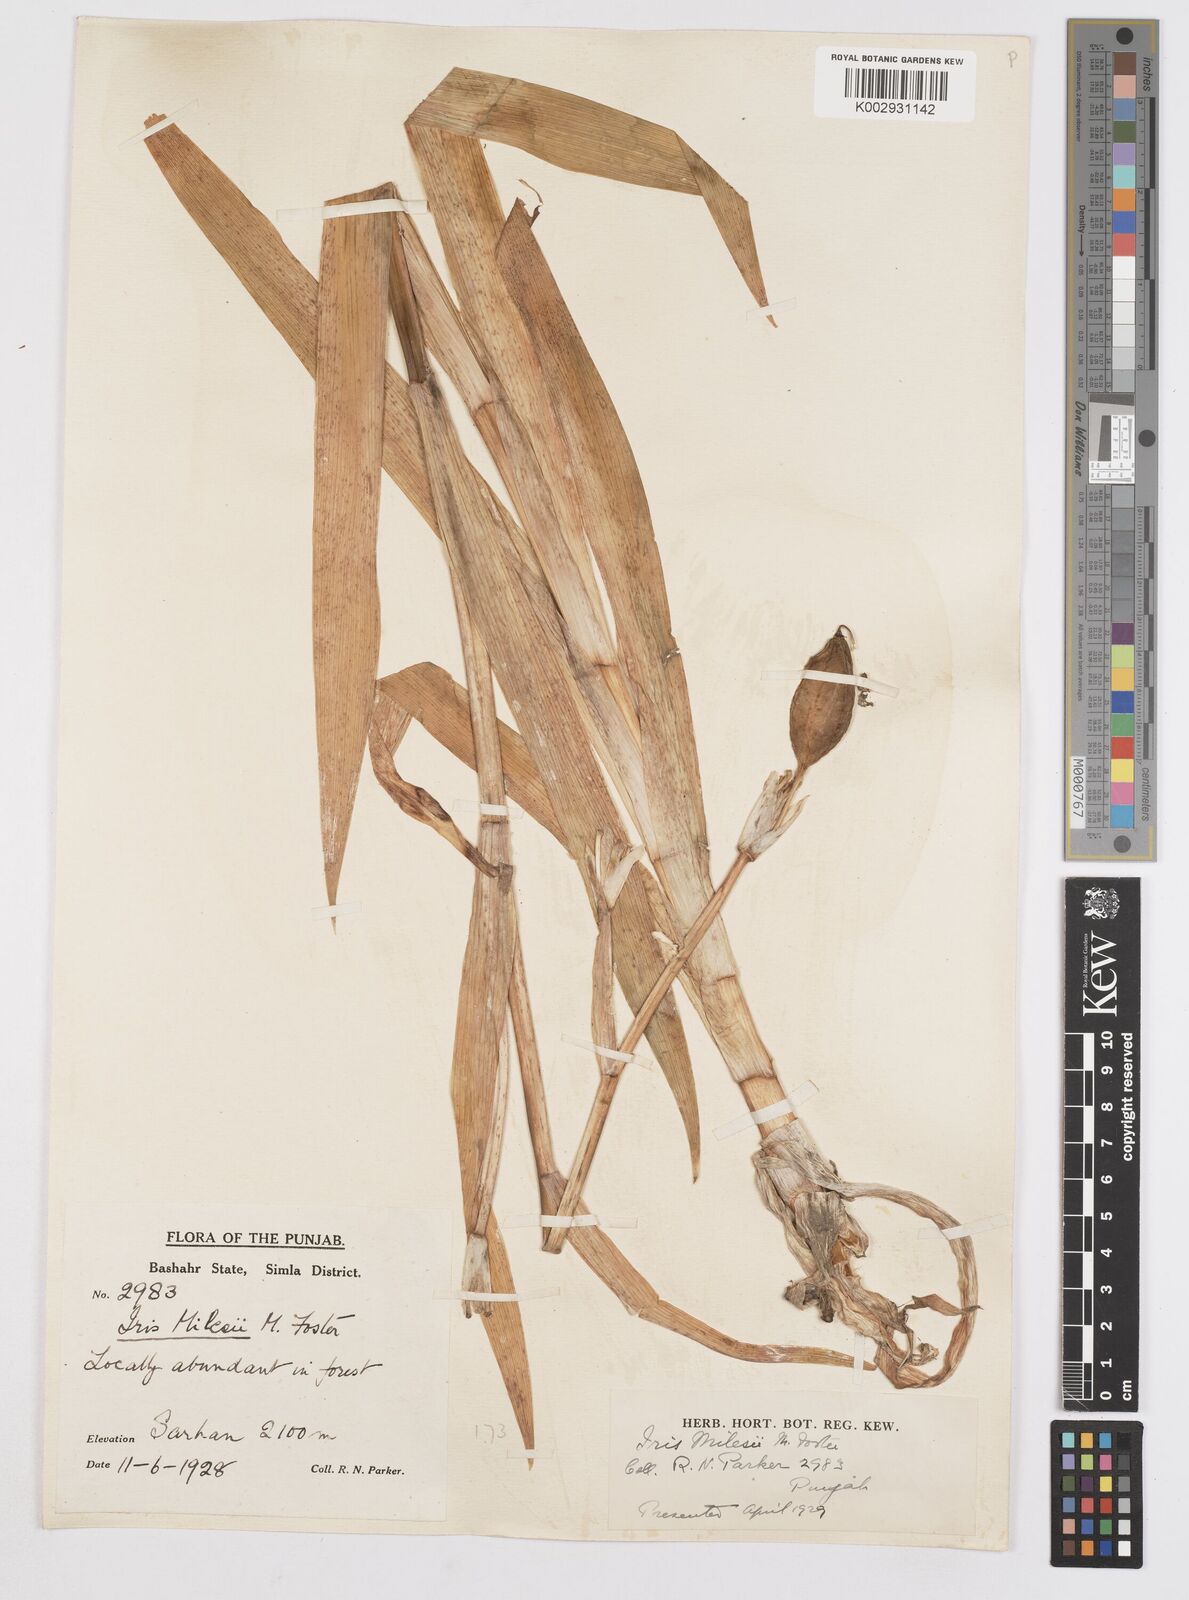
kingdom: Plantae
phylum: Tracheophyta
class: Liliopsida
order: Asparagales
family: Iridaceae
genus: Iris
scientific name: Iris milesii
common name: Red-flower iris
